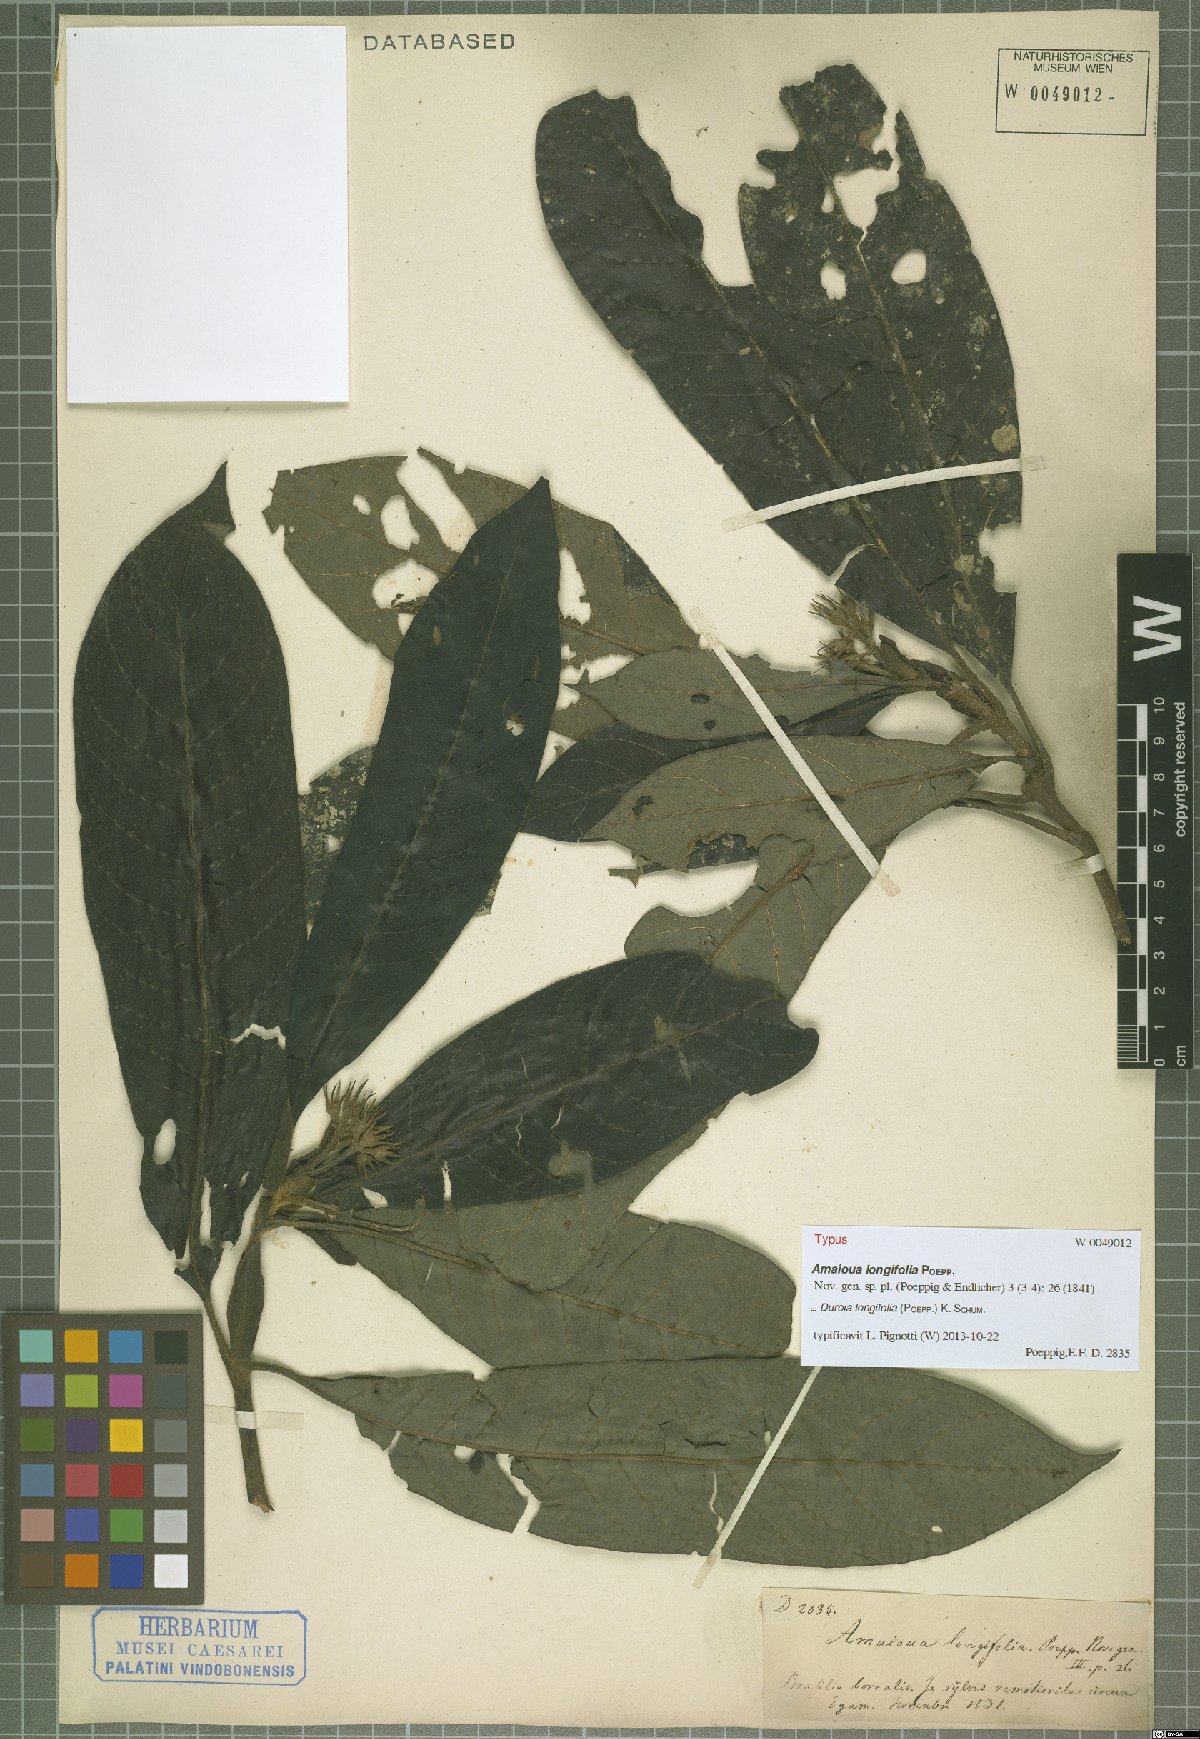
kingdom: Plantae
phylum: Tracheophyta
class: Magnoliopsida
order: Gentianales
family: Rubiaceae
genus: Duroia
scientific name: Duroia longifolia
